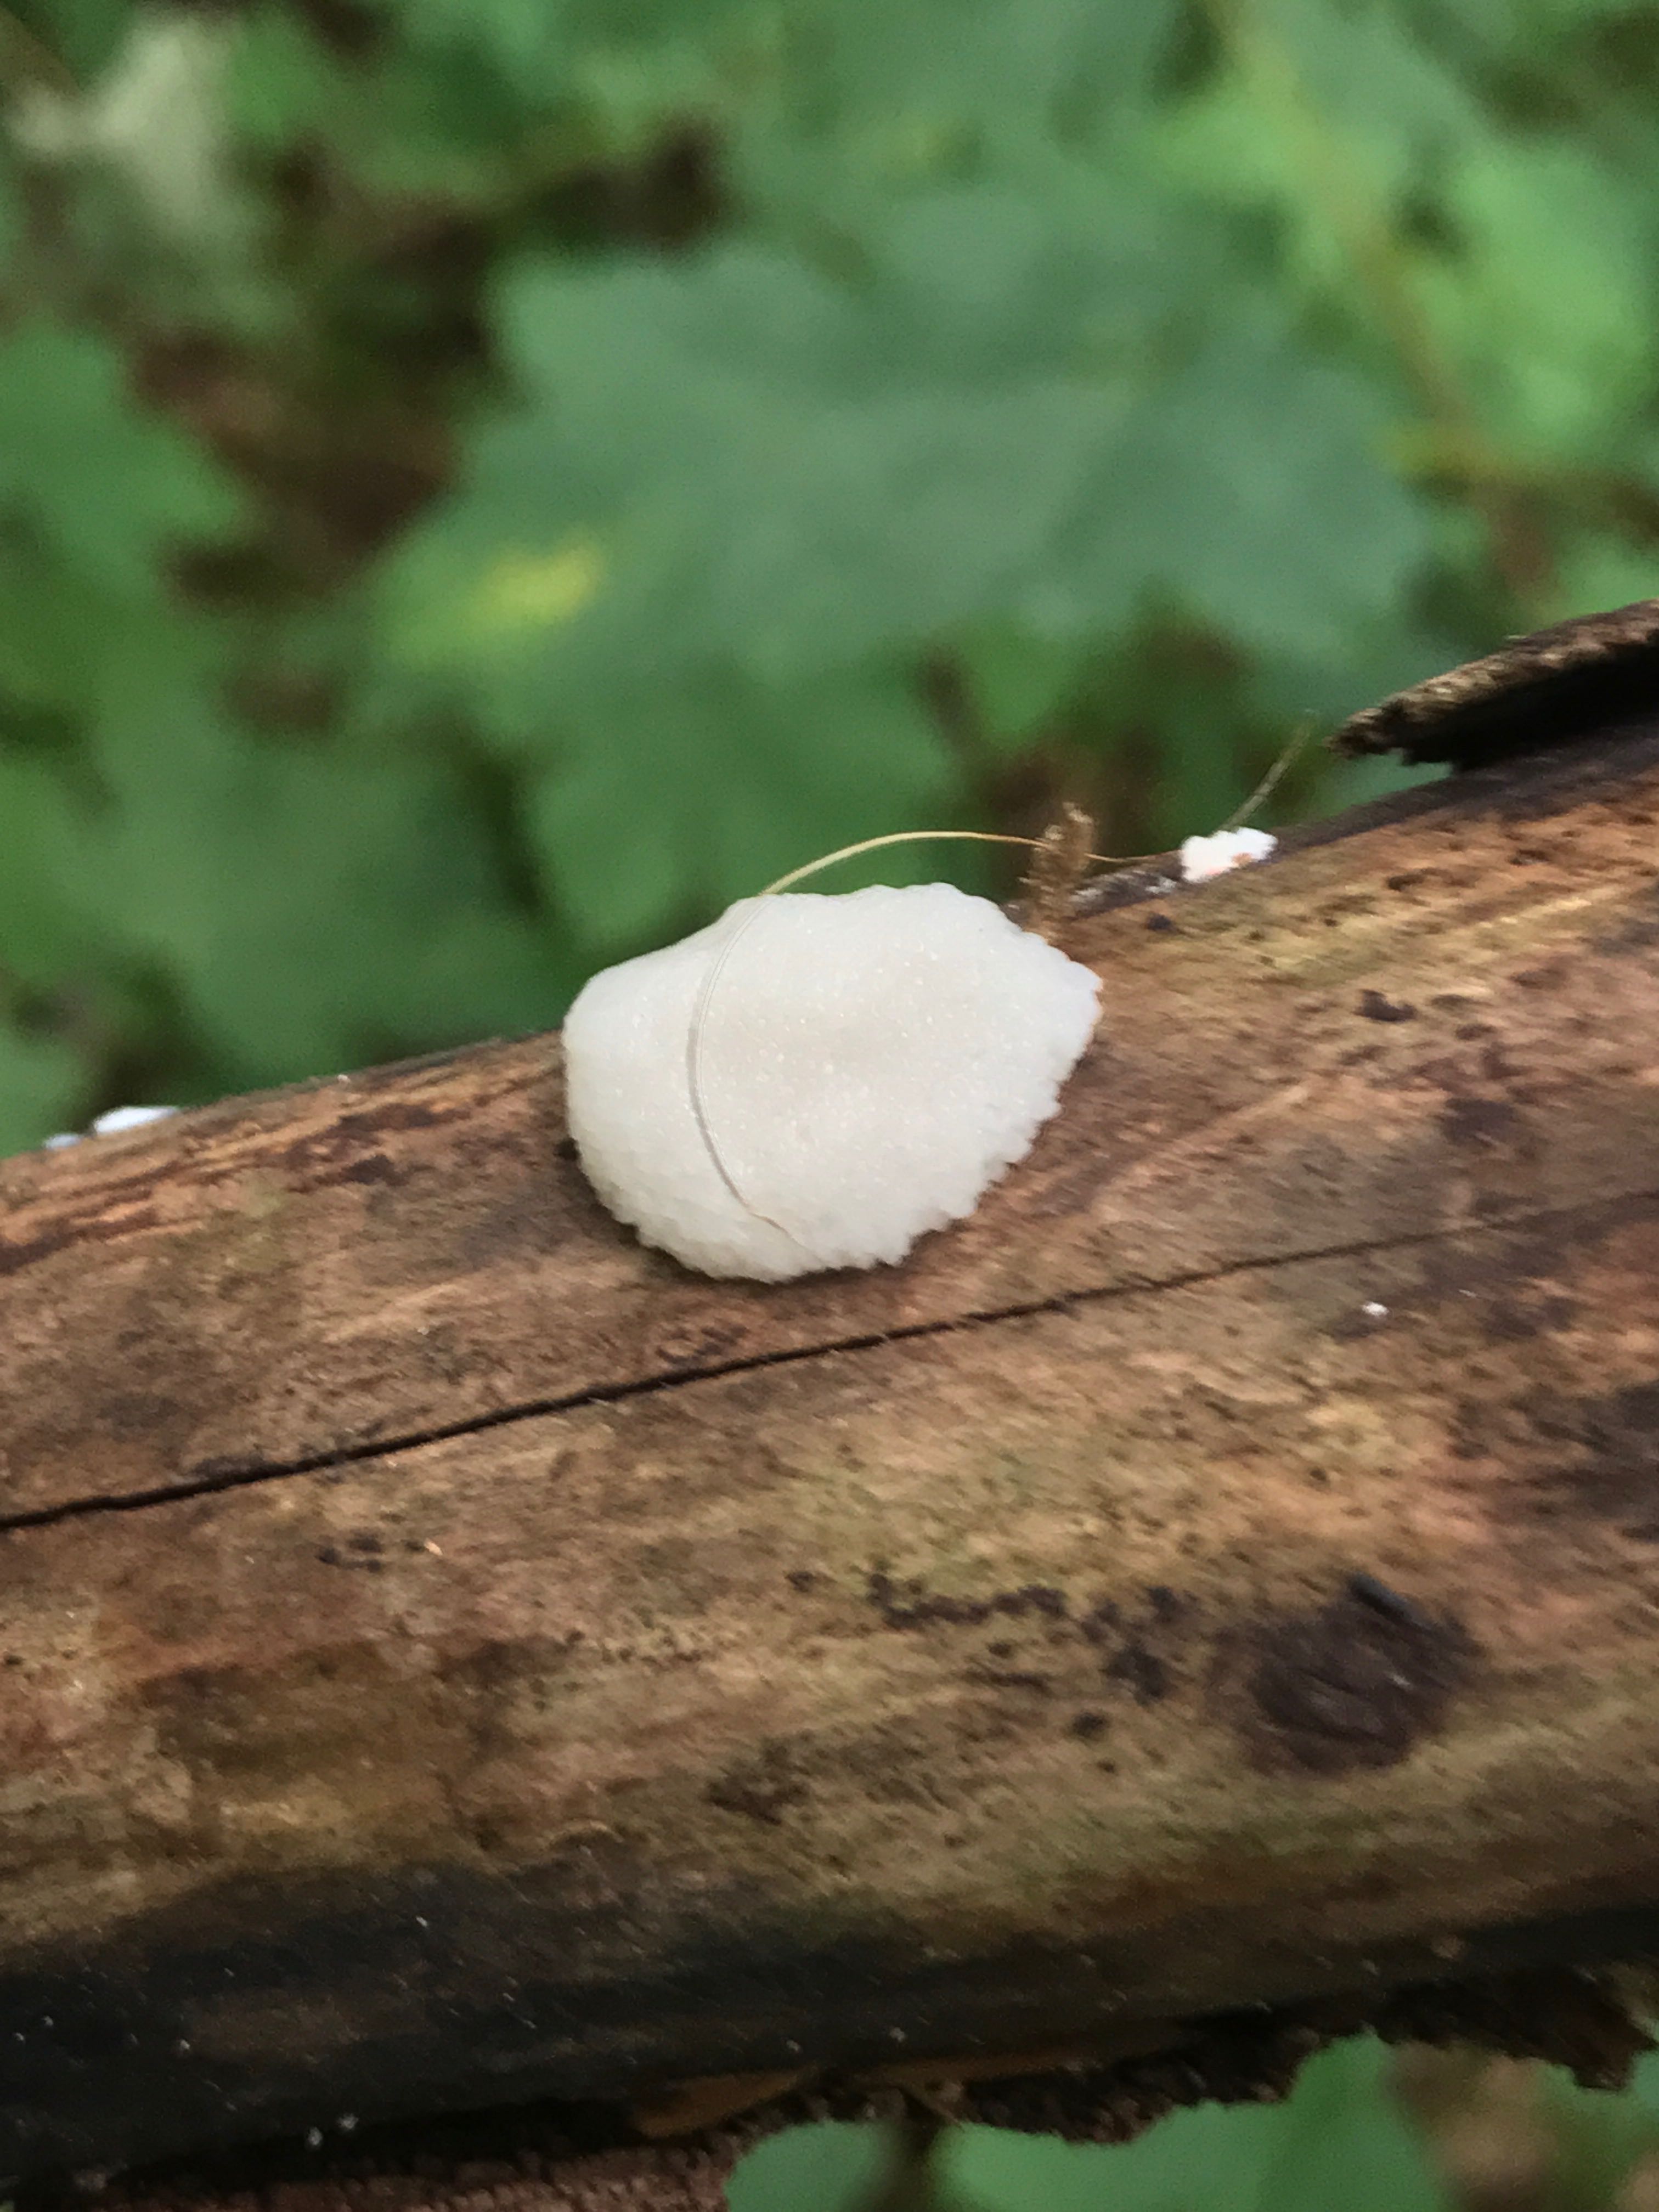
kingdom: Protozoa
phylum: Mycetozoa
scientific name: Mycetozoa
